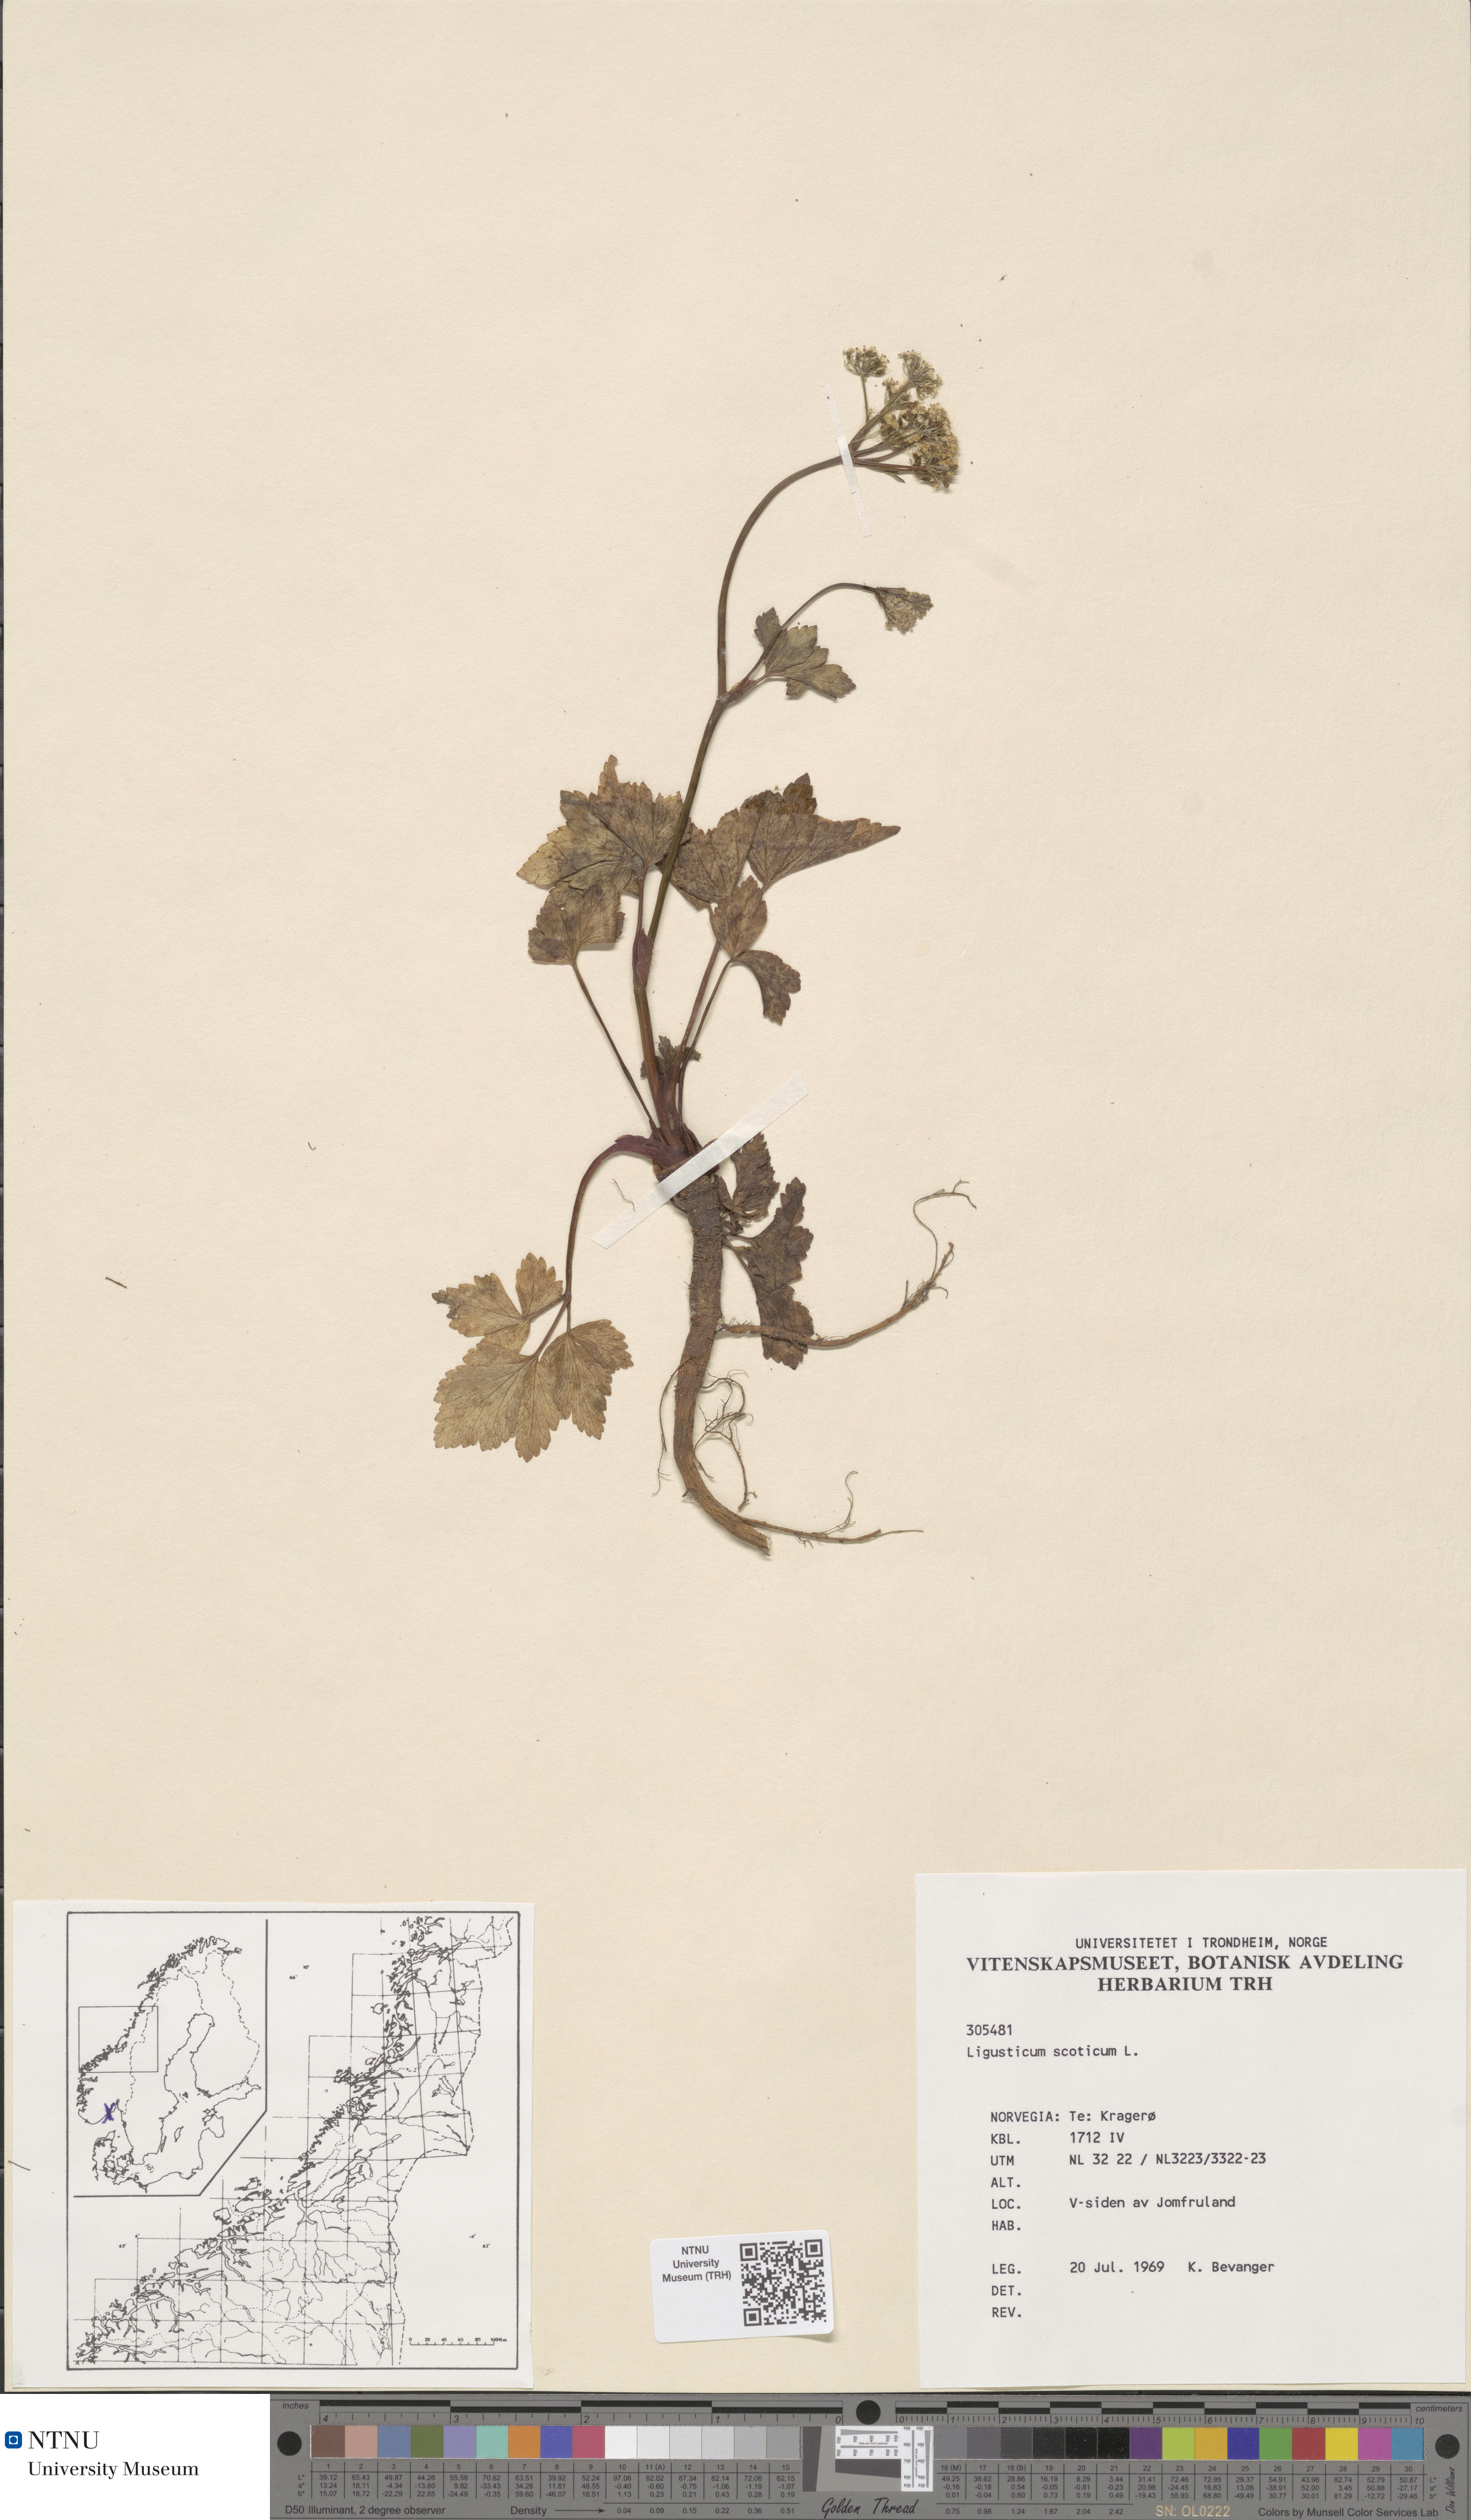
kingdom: Plantae
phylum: Tracheophyta
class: Magnoliopsida
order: Apiales
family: Apiaceae
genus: Ligusticum
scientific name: Ligusticum scothicum
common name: Beach lovage
